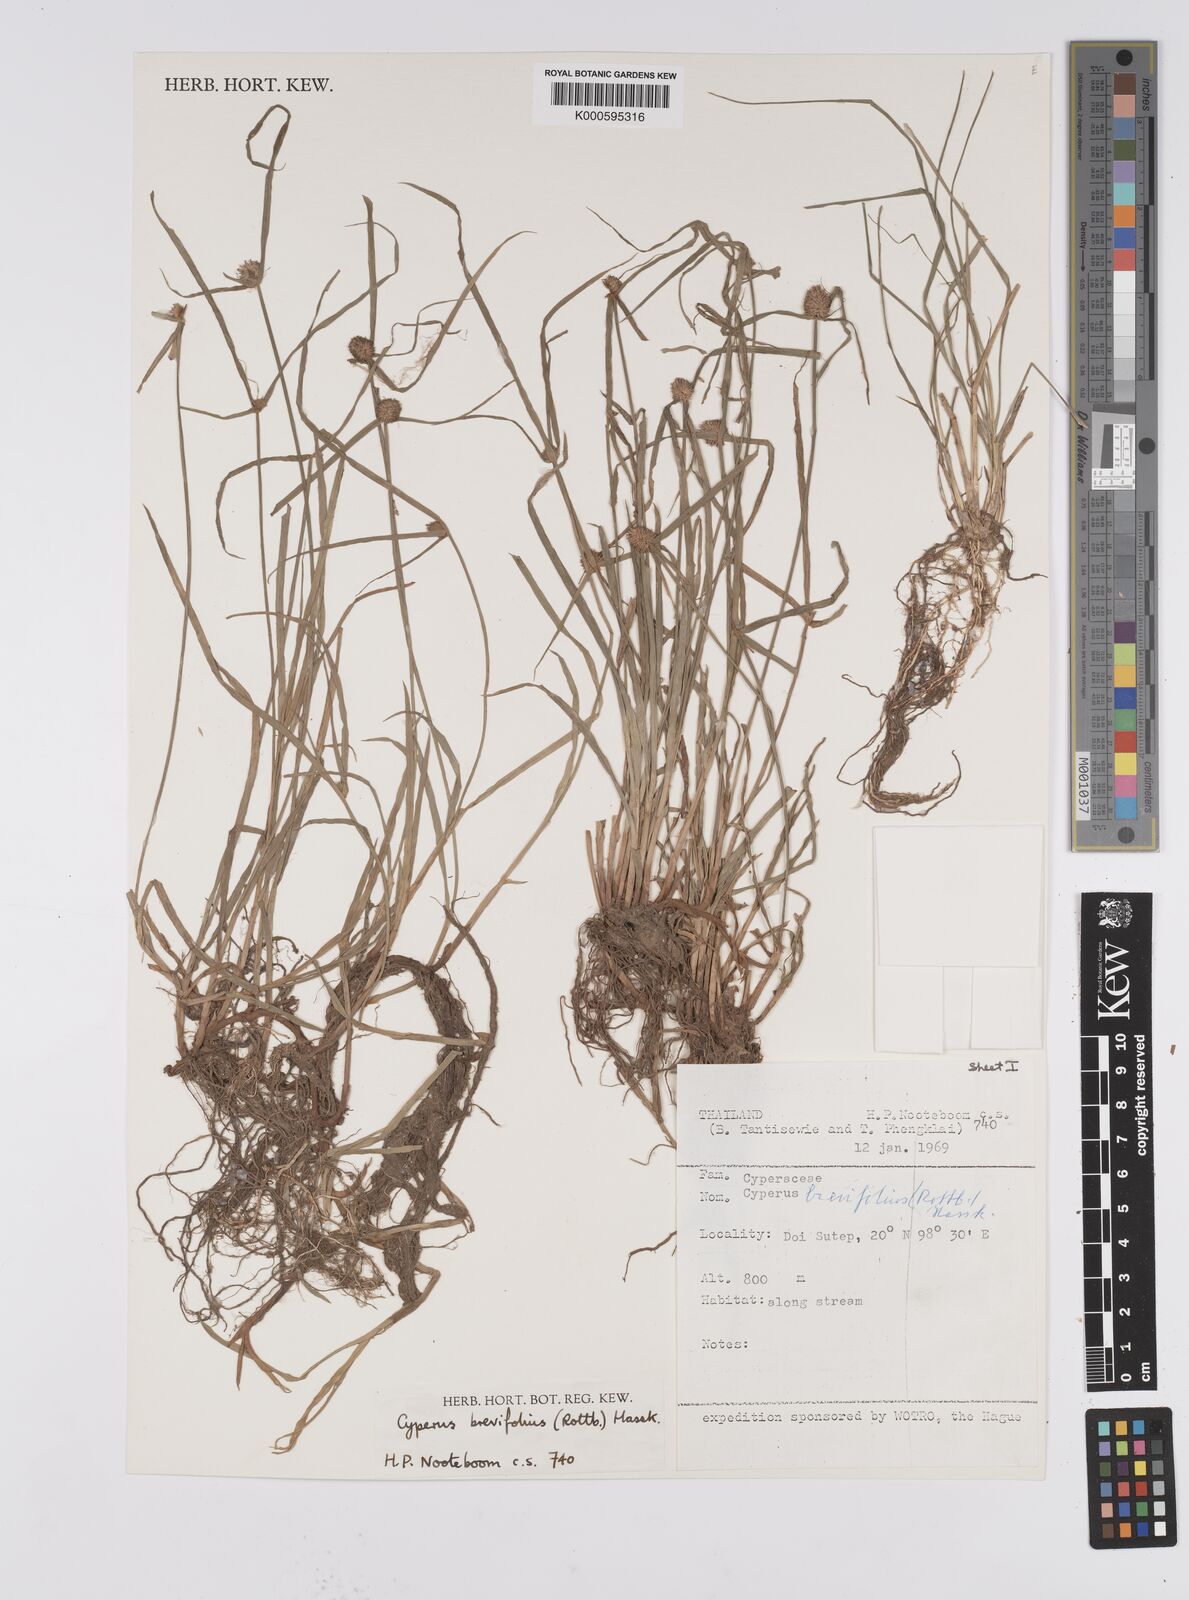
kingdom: Plantae
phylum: Tracheophyta
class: Liliopsida
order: Poales
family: Cyperaceae
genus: Cyperus
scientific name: Cyperus brevifolius
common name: Globe kyllinga
